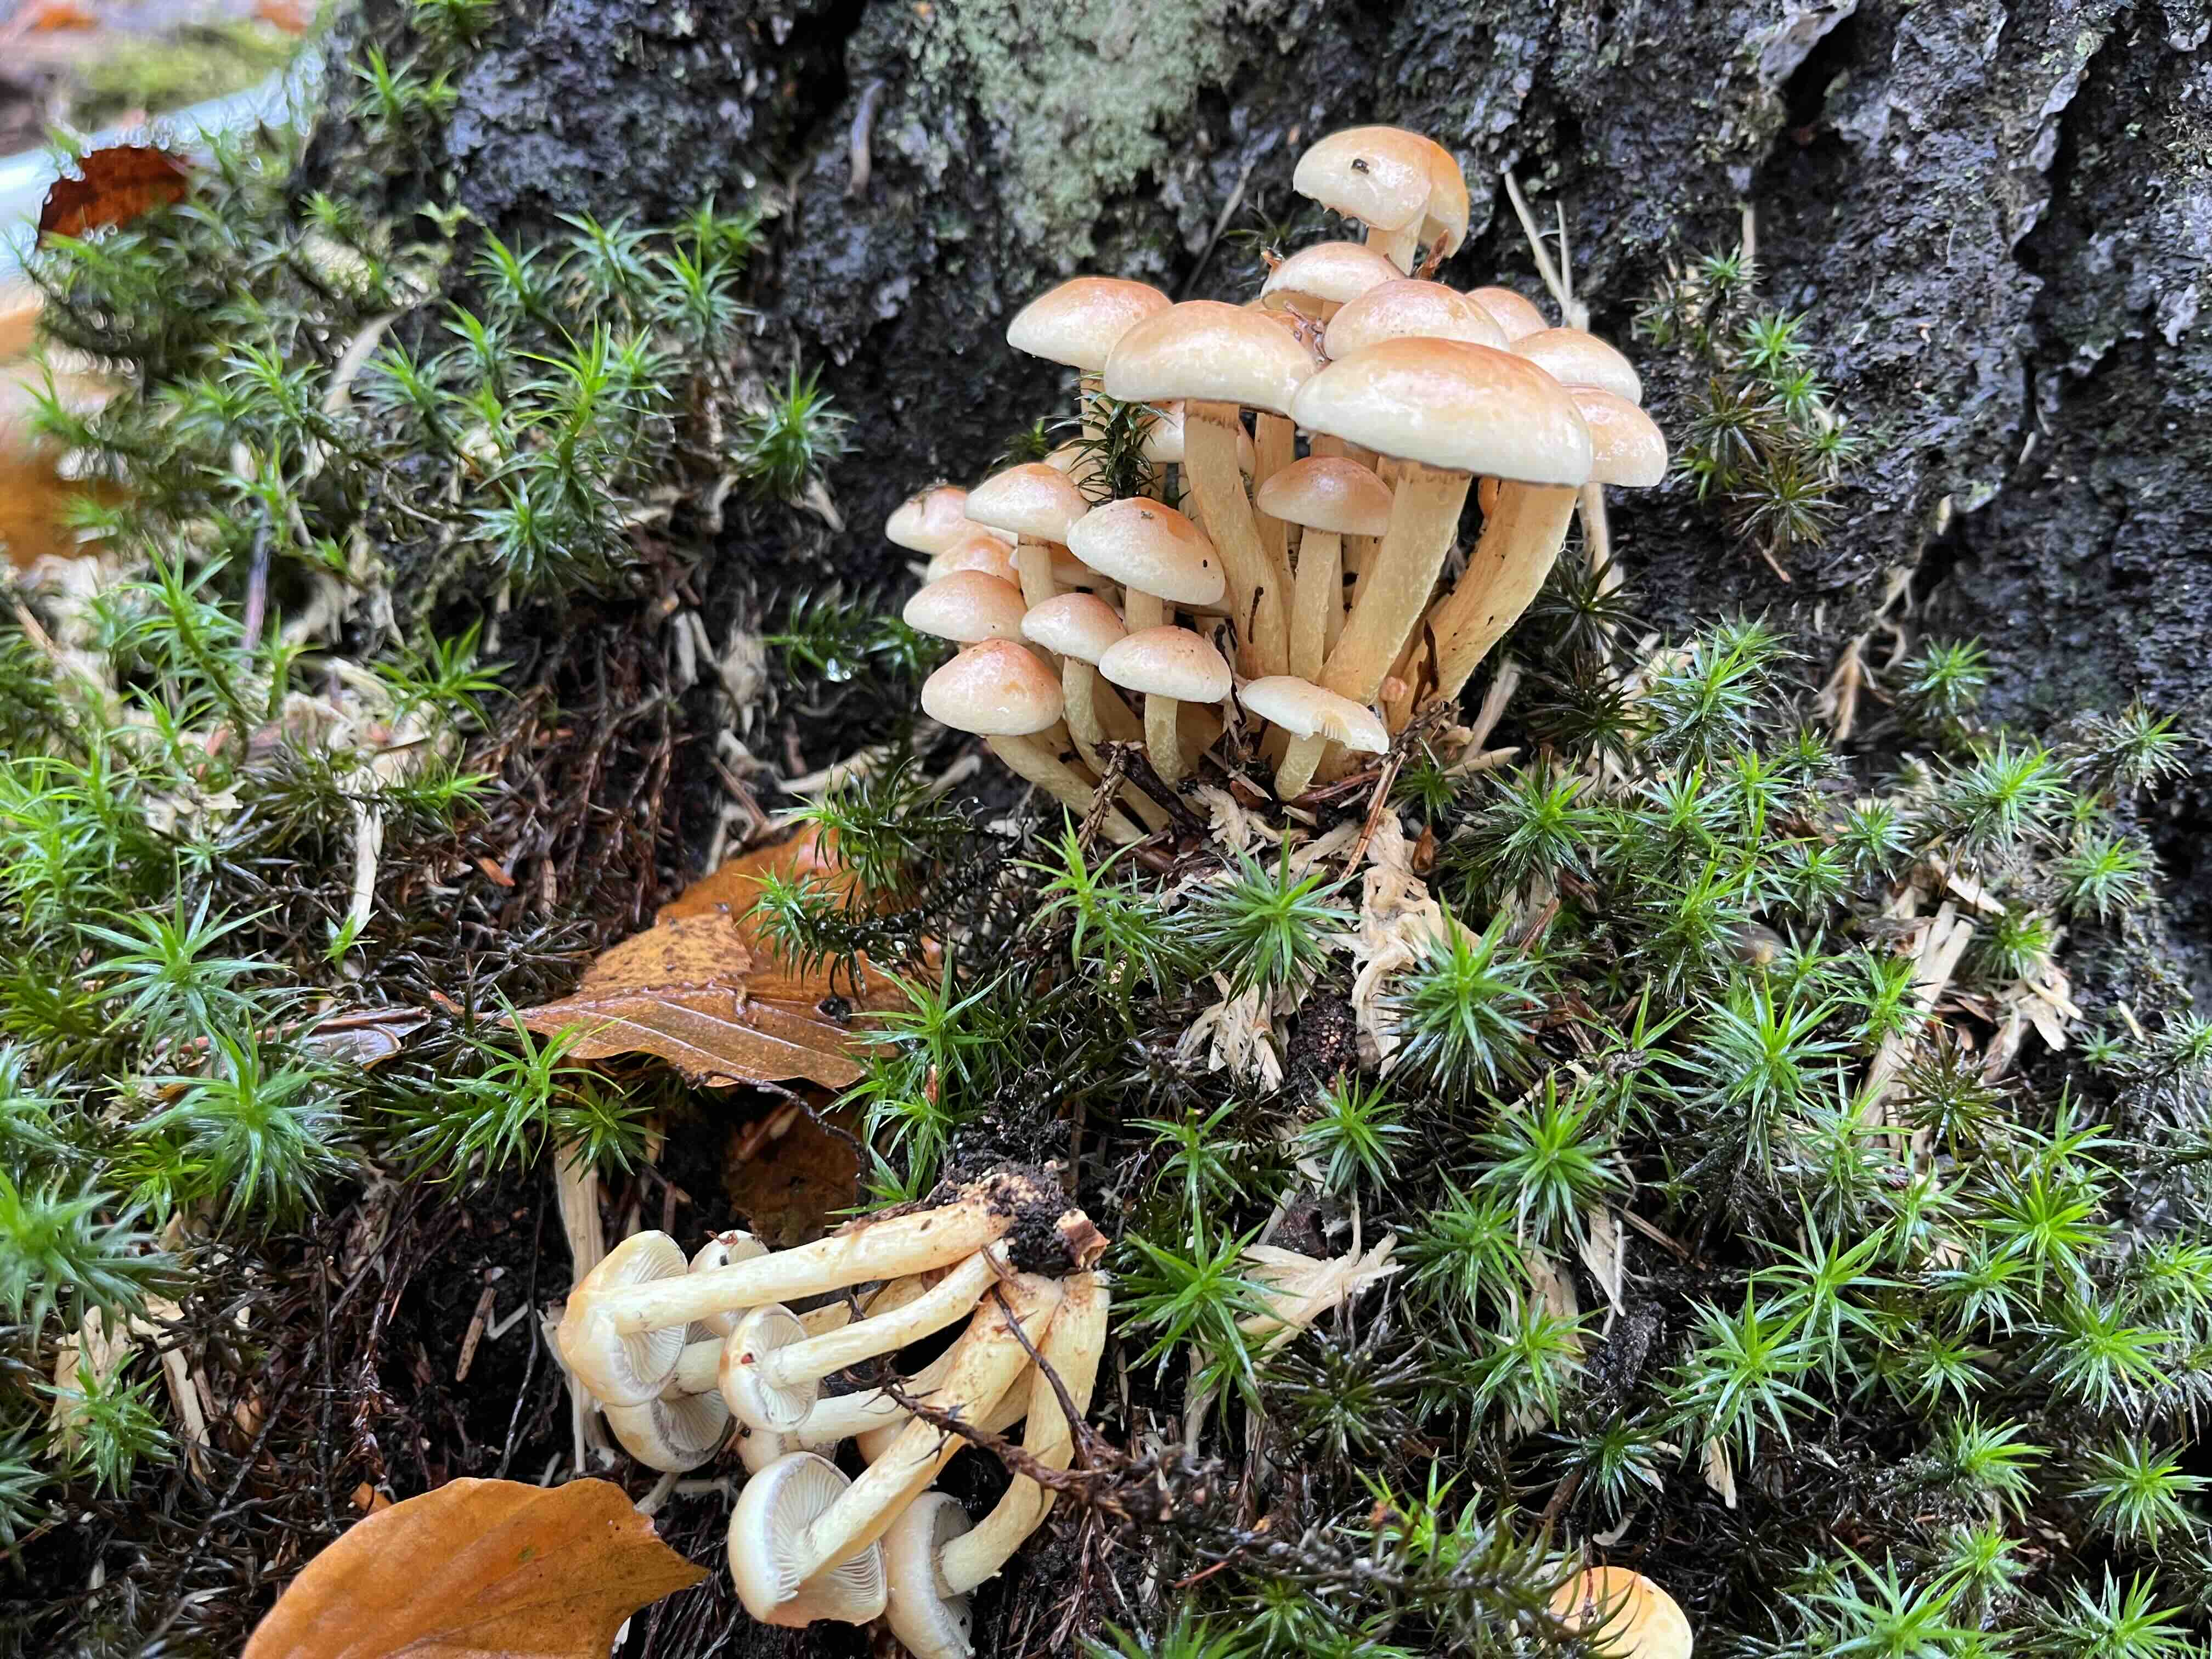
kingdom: Fungi
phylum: Basidiomycota
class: Agaricomycetes
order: Agaricales
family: Strophariaceae
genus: Hypholoma
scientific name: Hypholoma fasciculare
